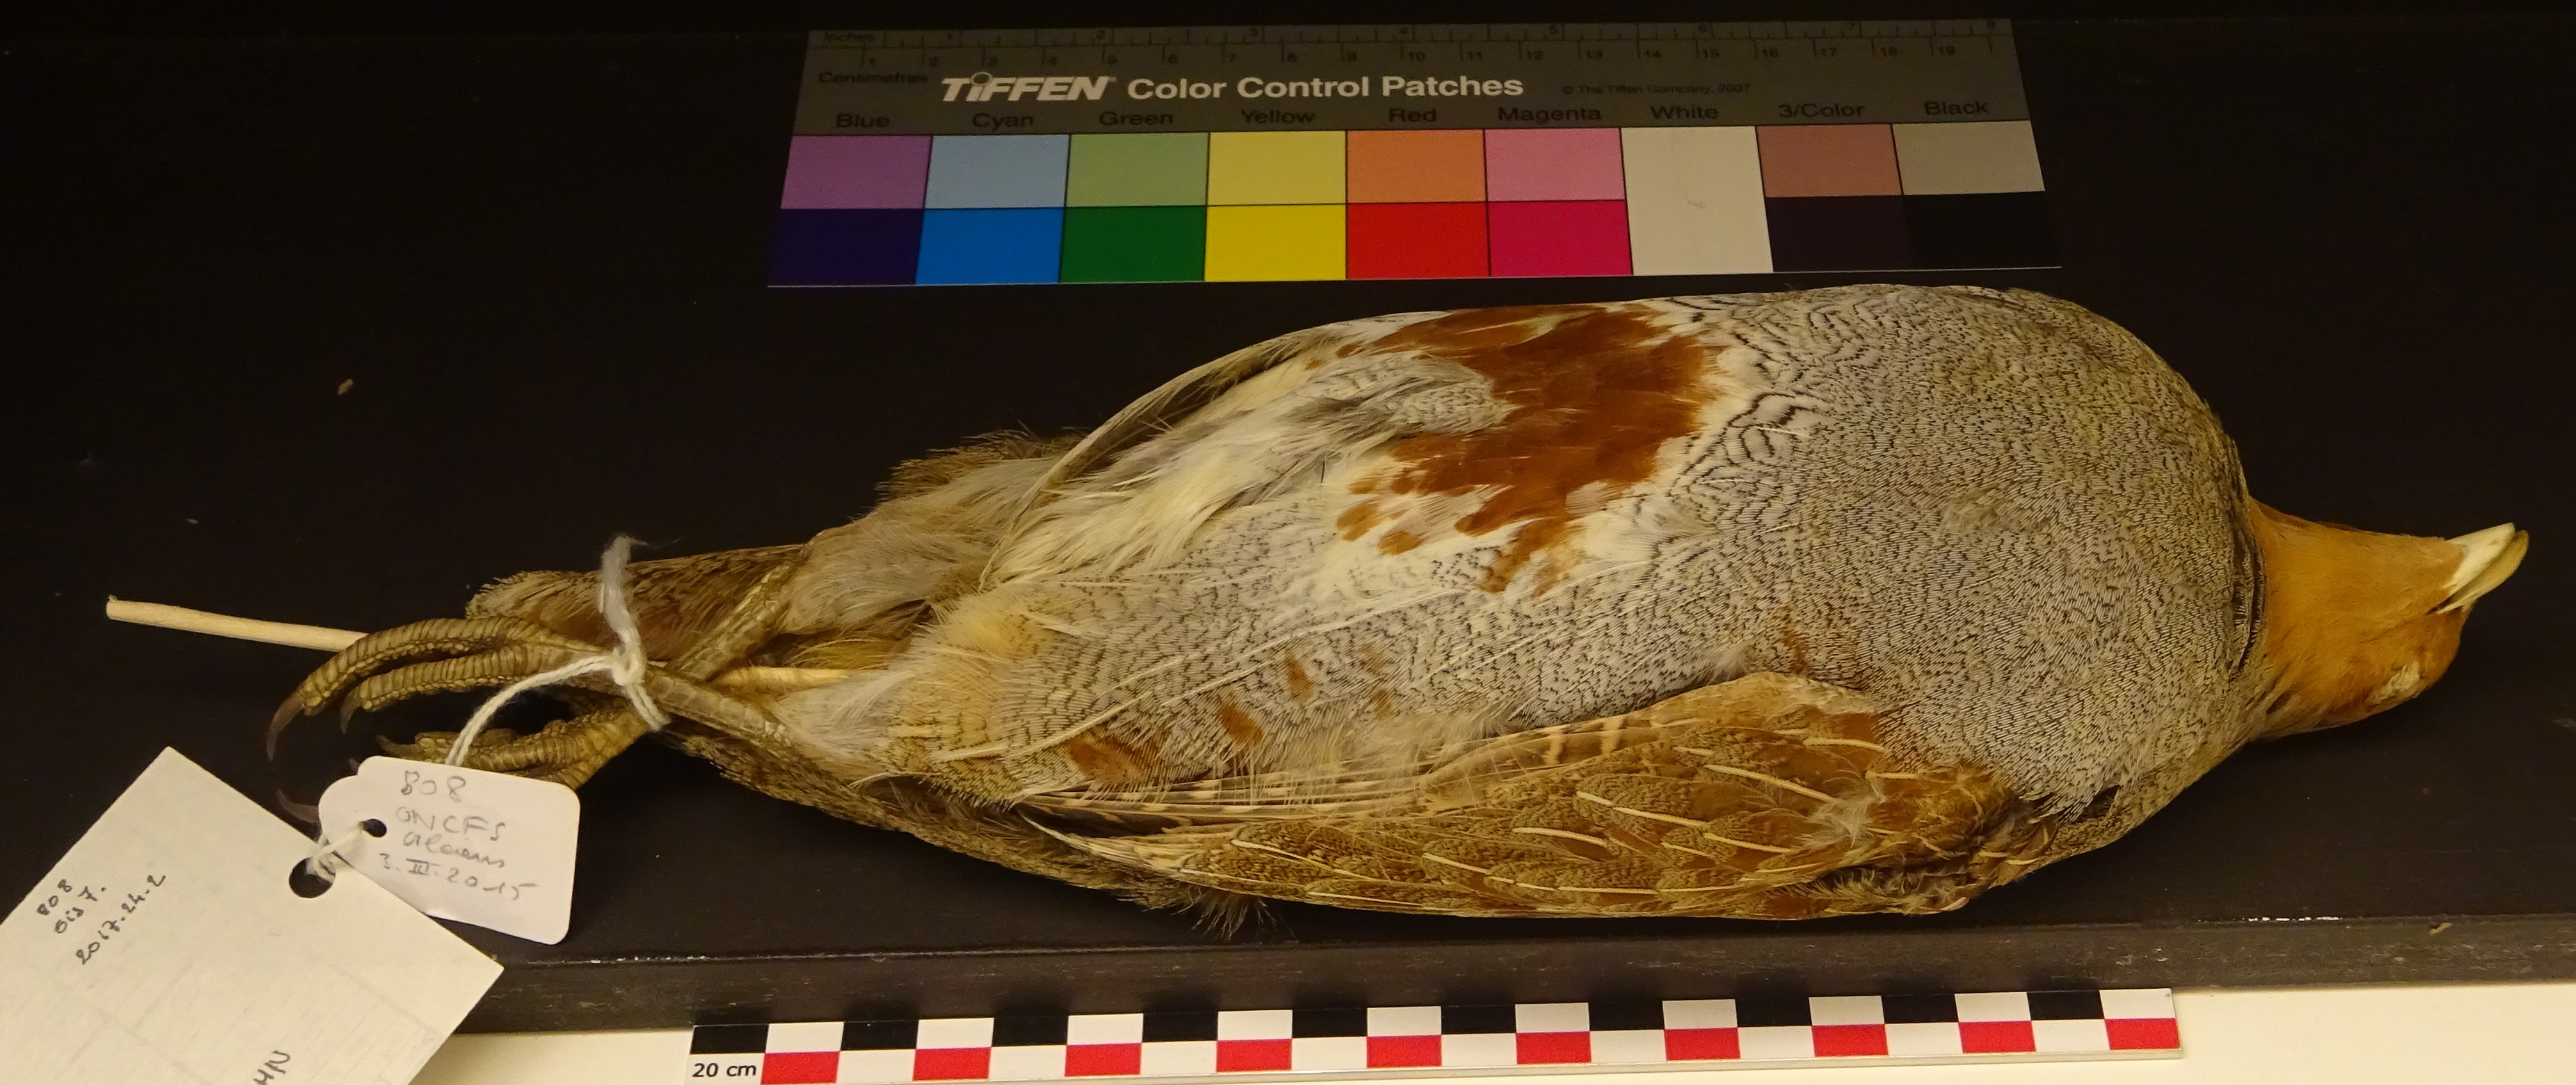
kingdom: Animalia
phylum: Chordata
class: Aves
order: Galliformes
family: Phasianidae
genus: Perdix
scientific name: Perdix perdix
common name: Grey partridge
